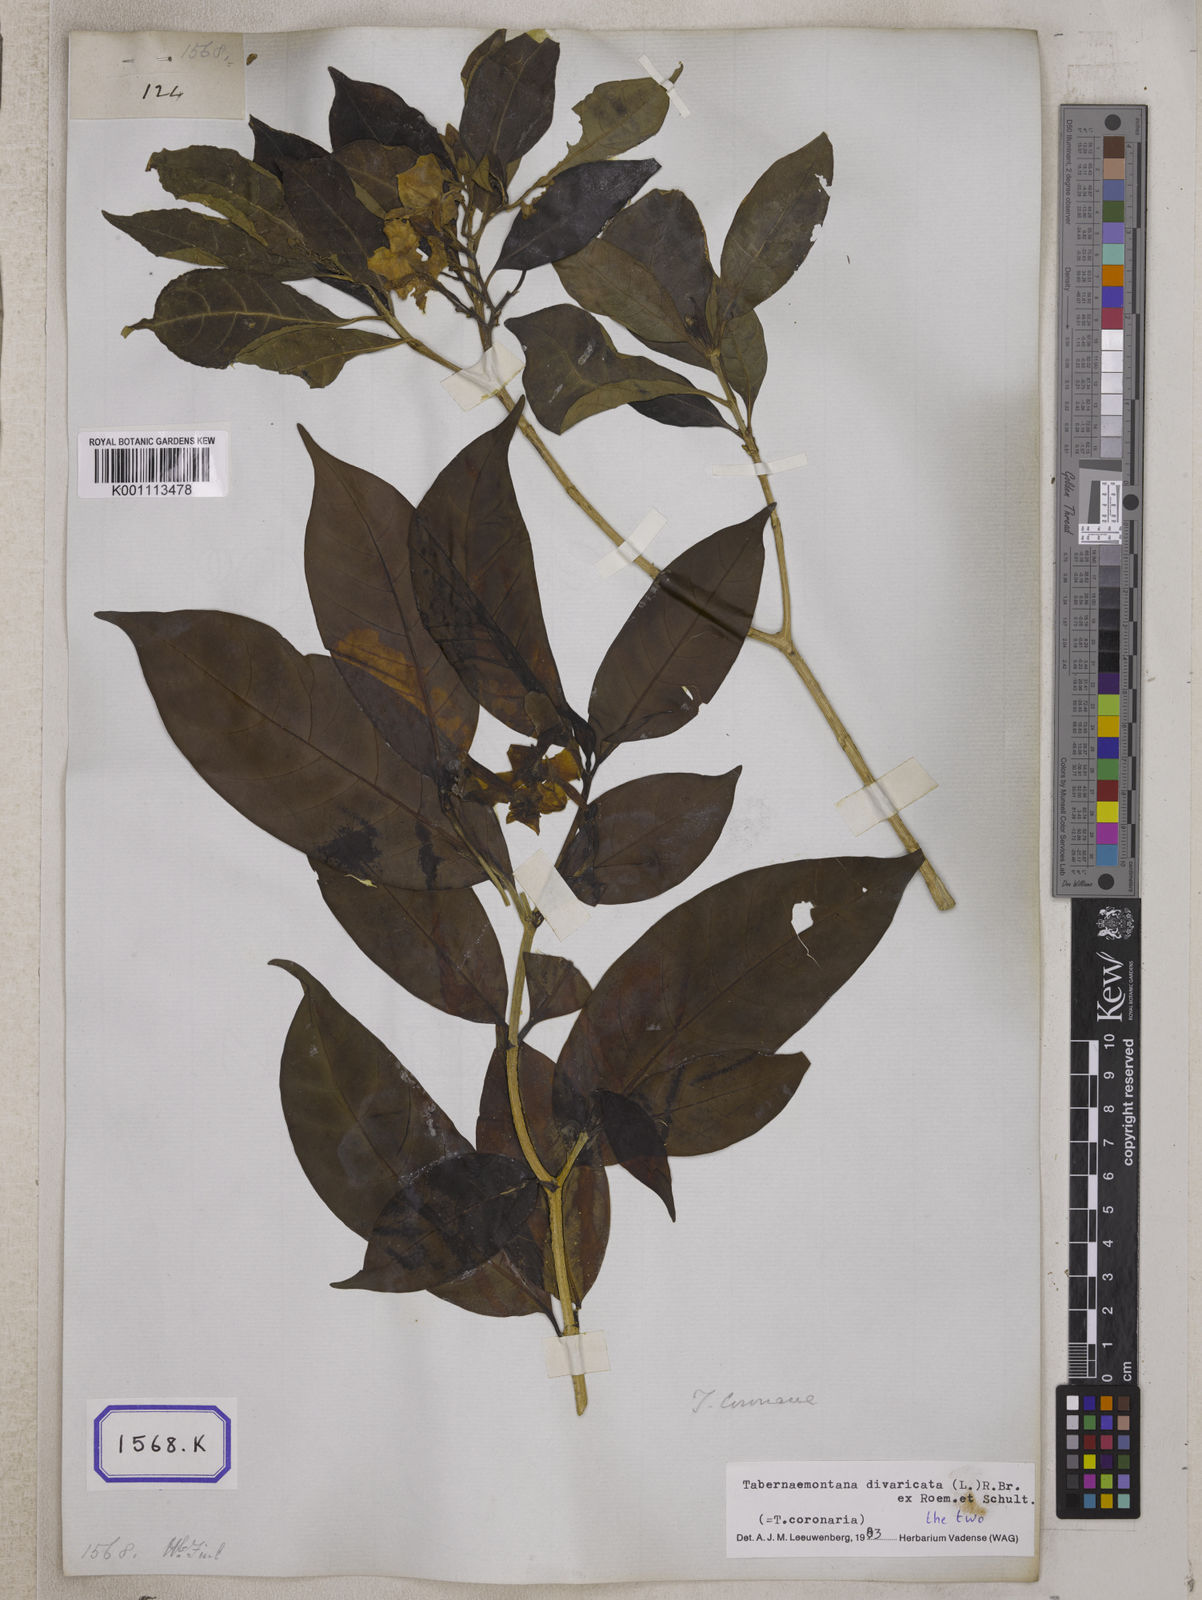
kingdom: Plantae
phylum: Tracheophyta
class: Magnoliopsida
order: Gentianales
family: Apocynaceae
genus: Tabernaemontana
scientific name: Tabernaemontana divaricata
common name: Pinwheelflower
